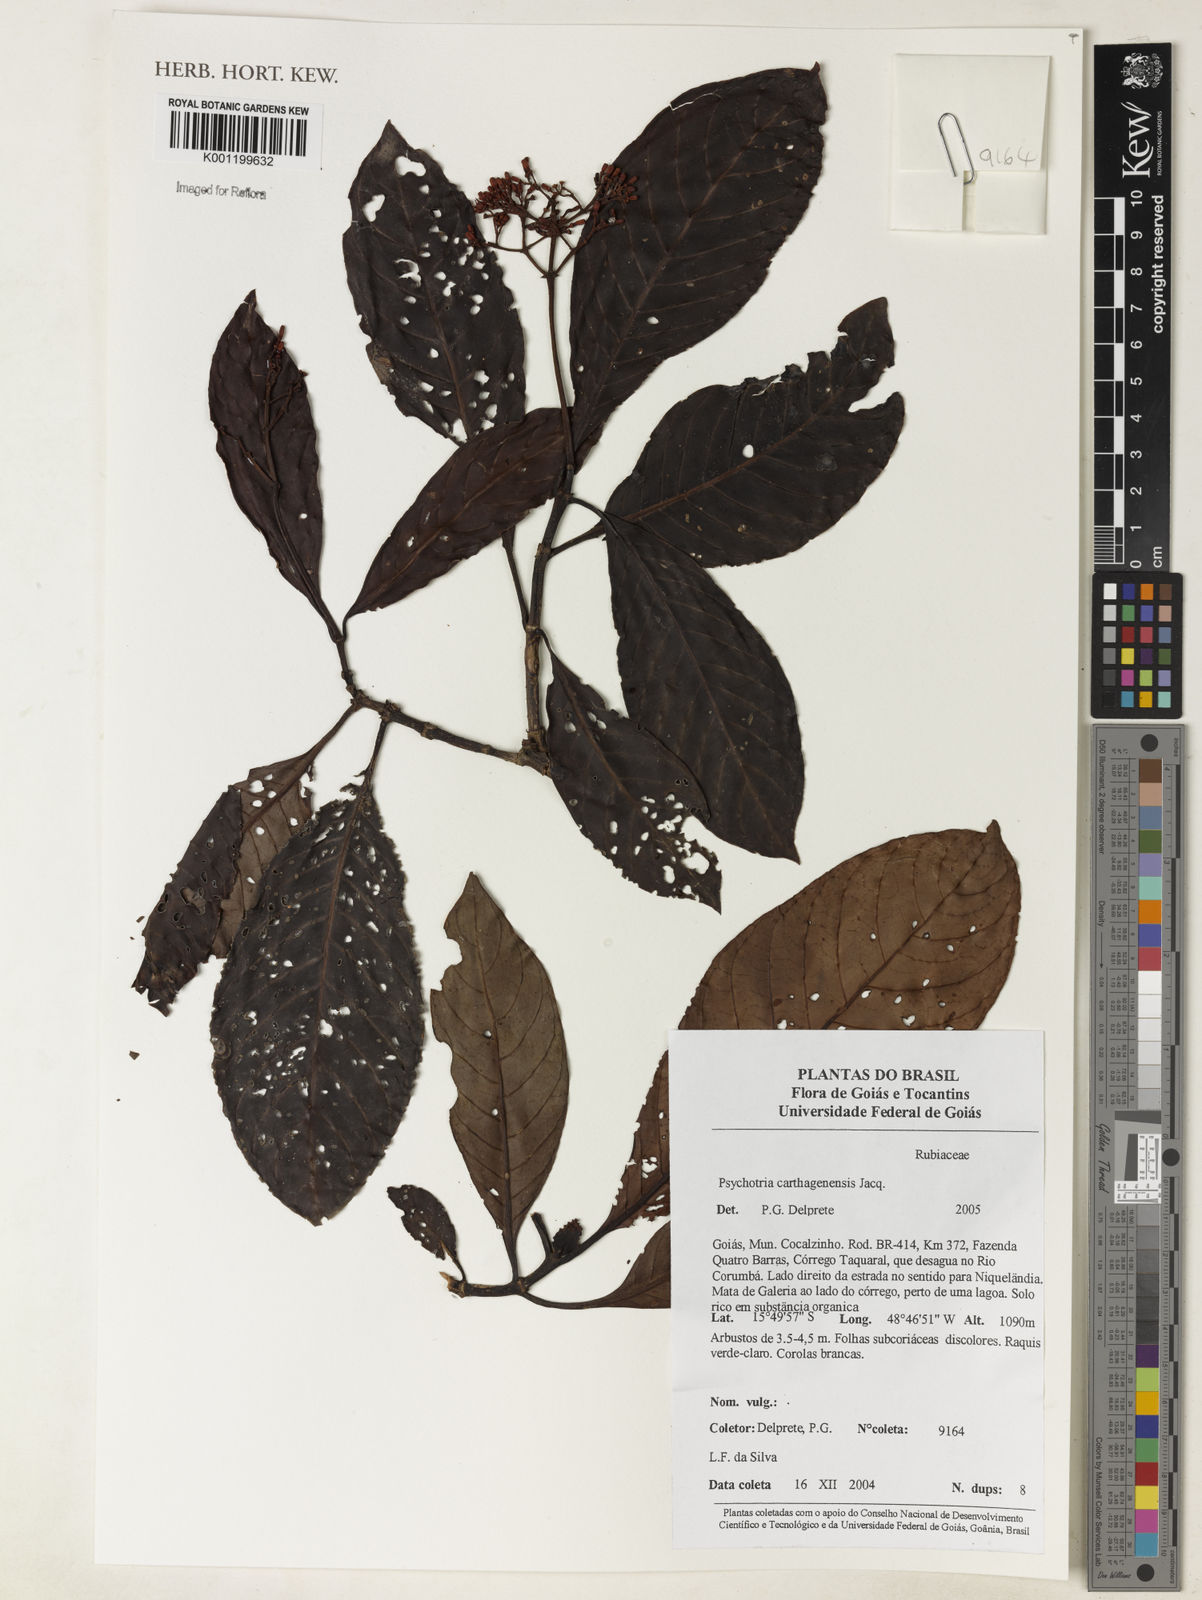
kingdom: Plantae
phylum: Tracheophyta
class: Magnoliopsida
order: Gentianales
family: Rubiaceae
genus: Psychotria
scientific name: Psychotria carthagenensis
